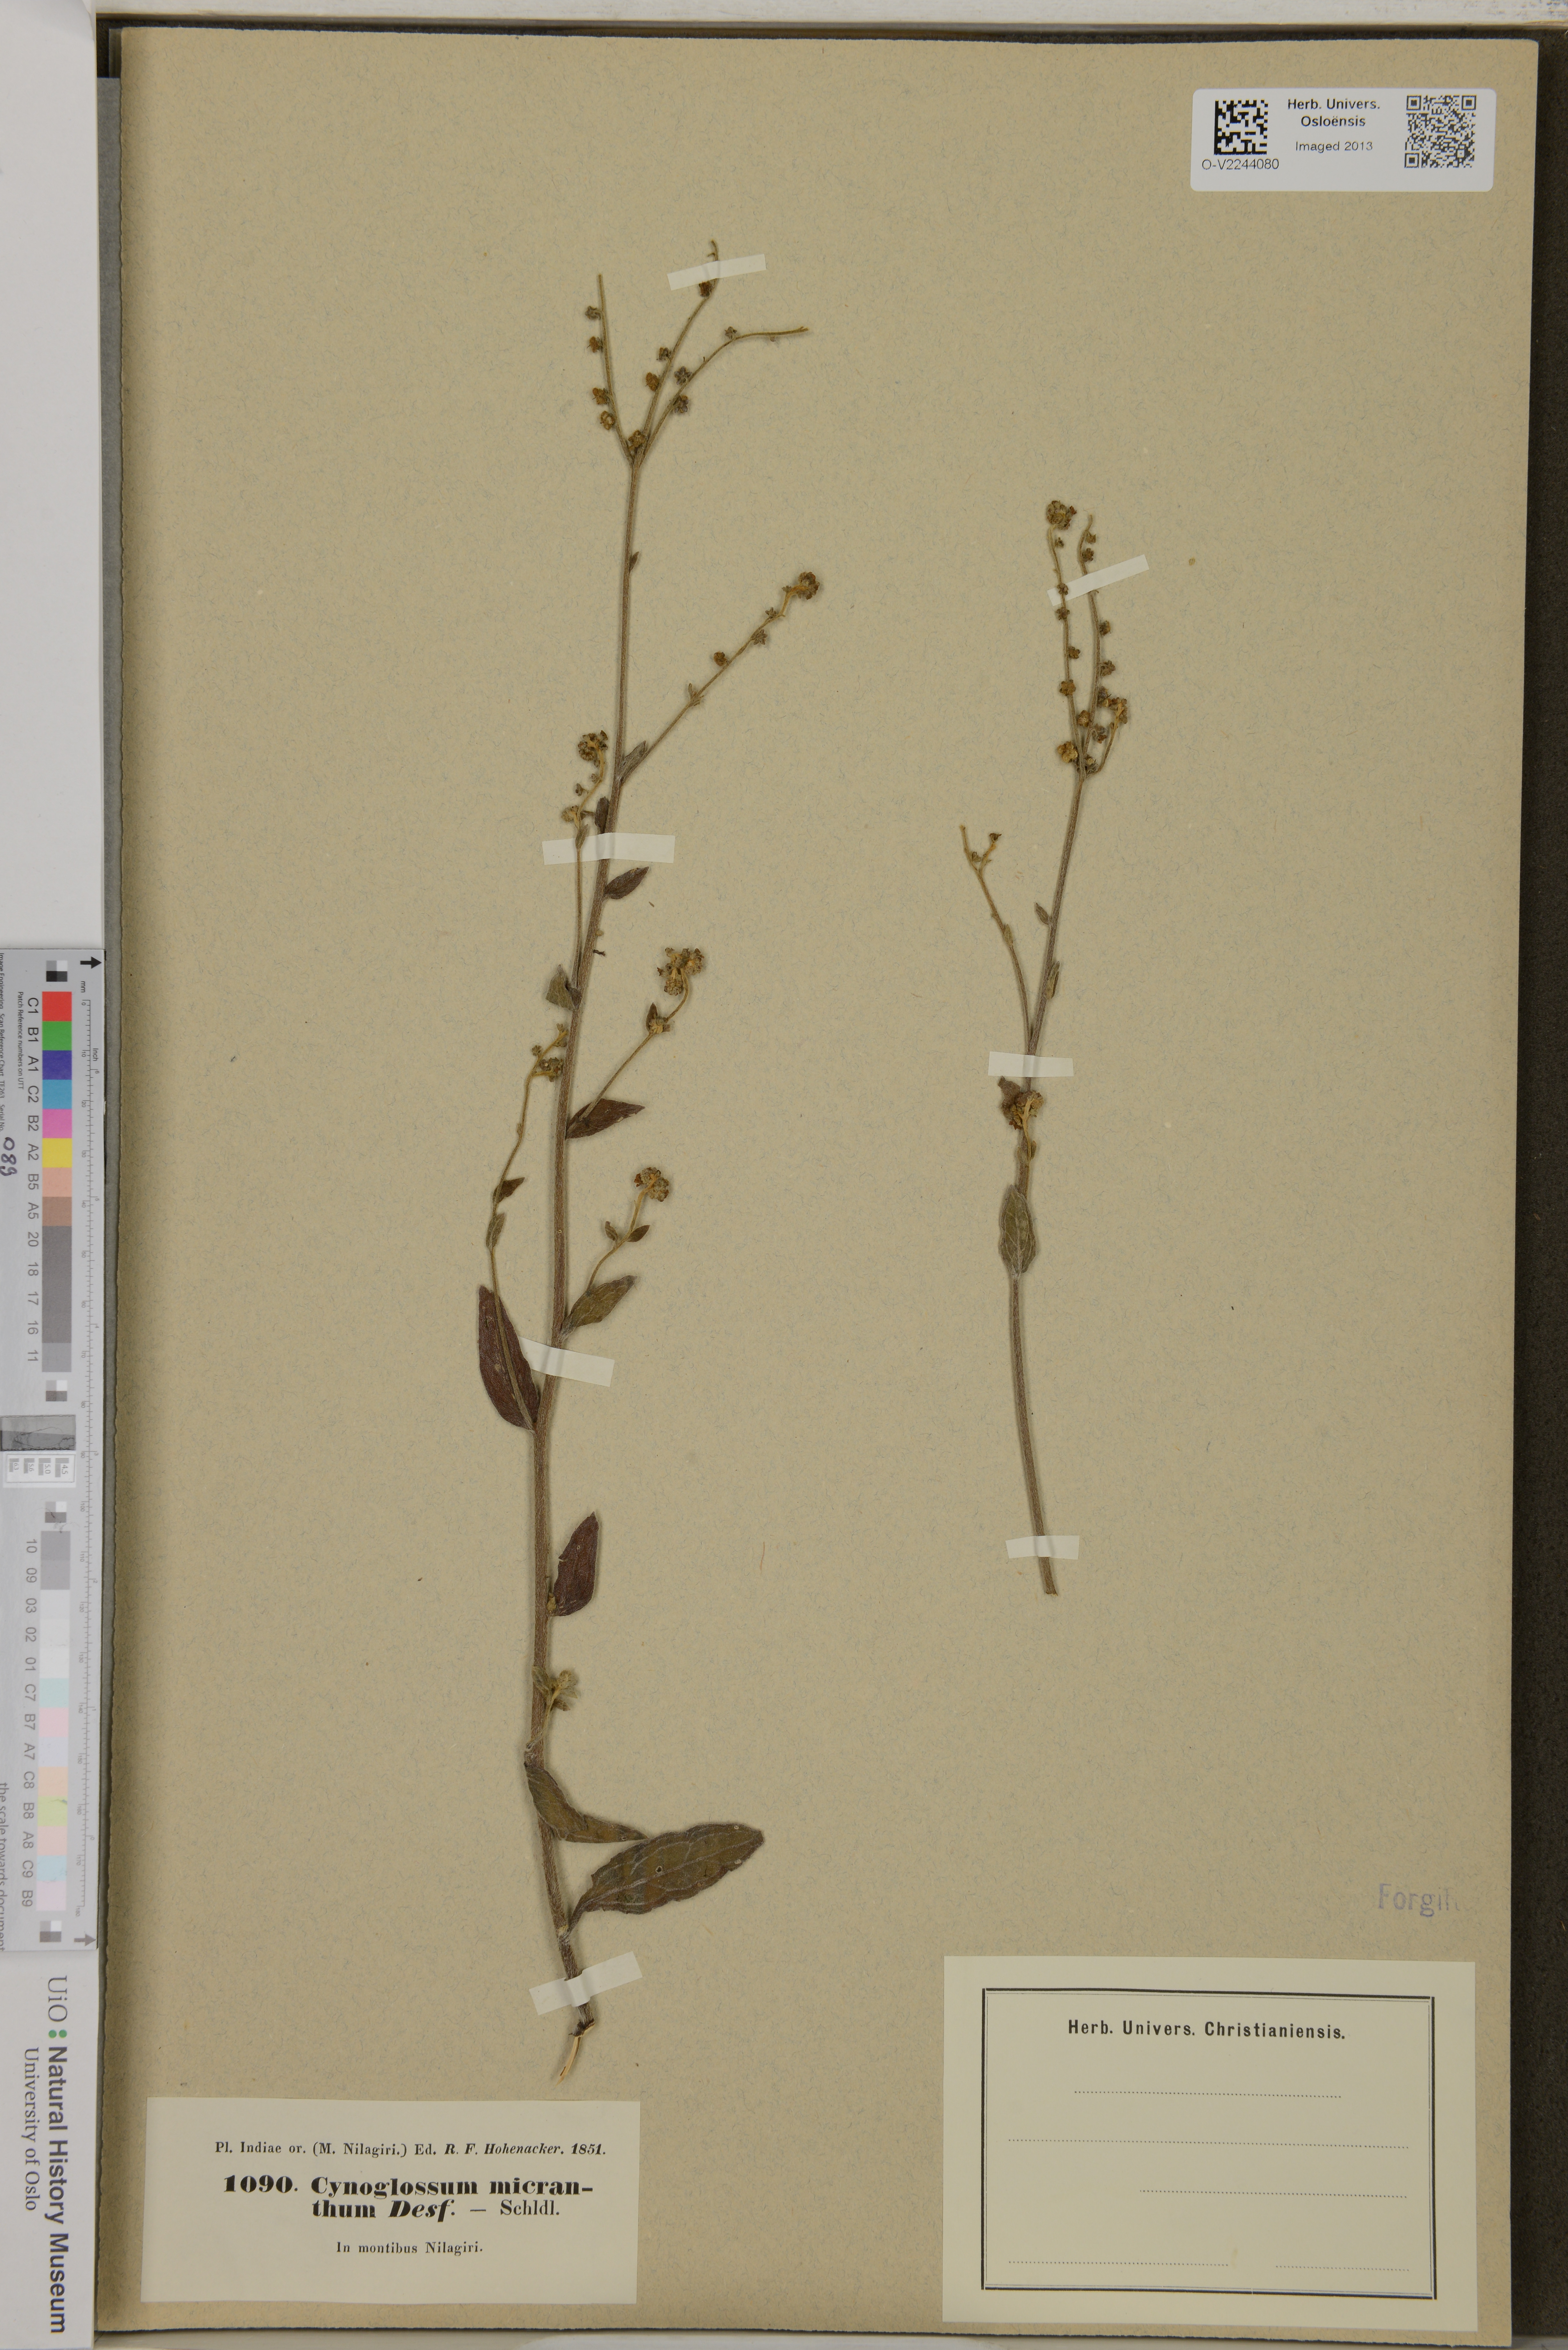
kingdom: Plantae
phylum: Tracheophyta
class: Magnoliopsida
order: Boraginales
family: Boraginaceae
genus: Cynoglossum
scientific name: Cynoglossum micranthum
